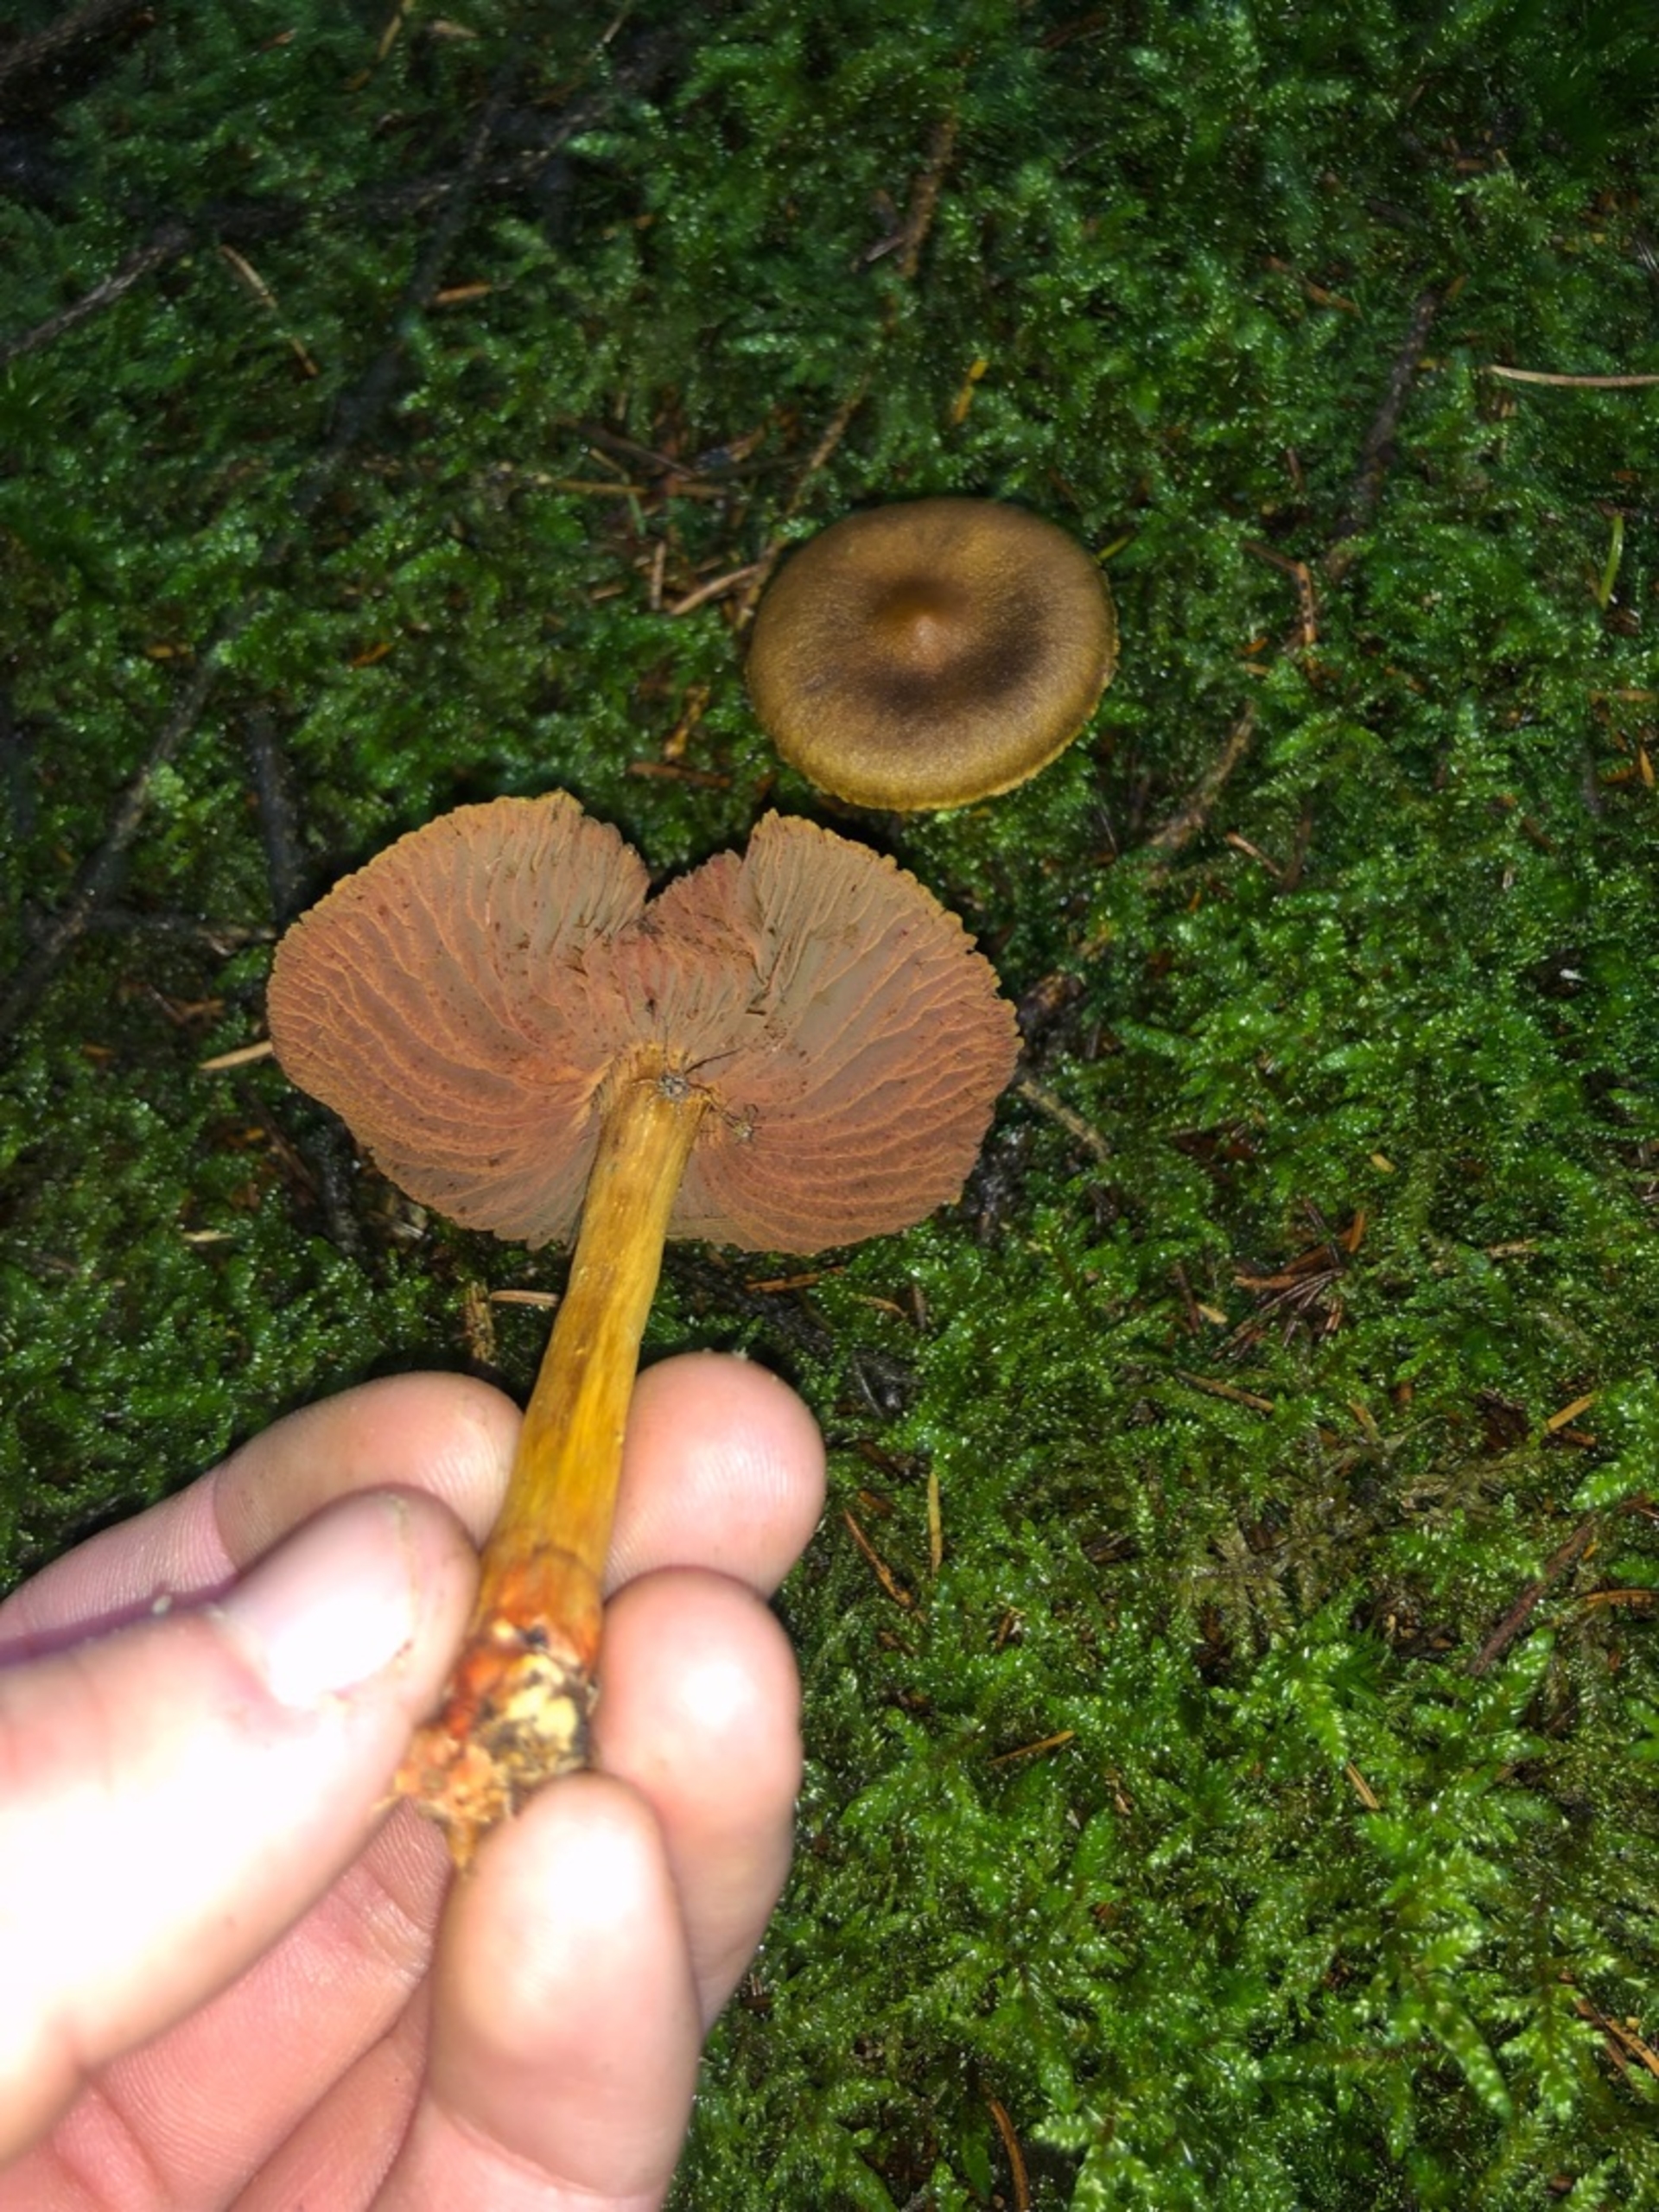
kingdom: Fungi
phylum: Basidiomycota
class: Agaricomycetes
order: Agaricales
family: Cortinariaceae
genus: Cortinarius
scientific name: Cortinarius semisanguineus
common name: Cinnoberbladet slørhat
